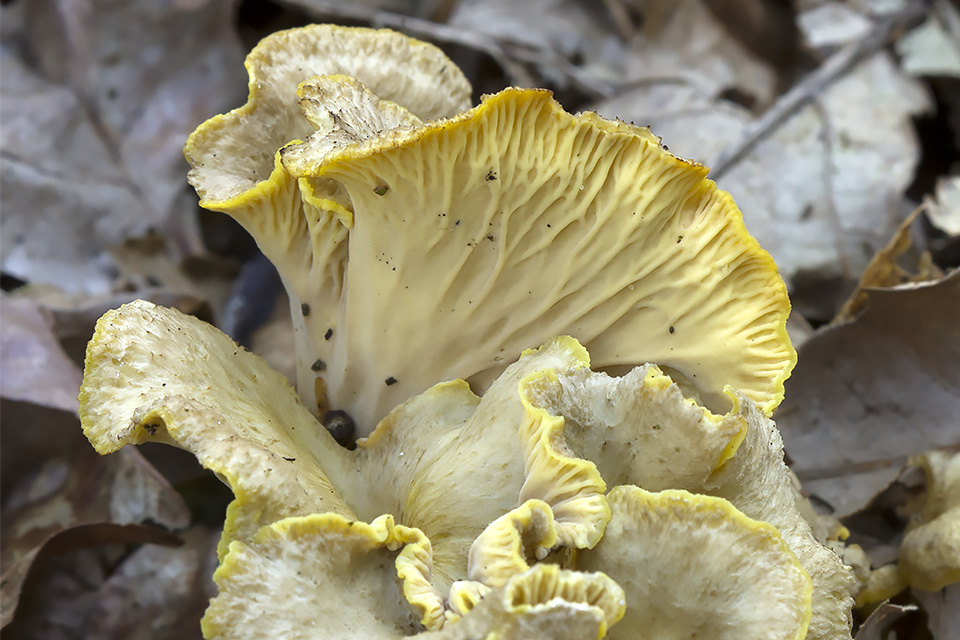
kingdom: Fungi
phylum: Basidiomycota
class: Agaricomycetes
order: Cantharellales
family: Hydnaceae
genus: Cantharellus
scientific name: Cantharellus melanoxeros
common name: sværtende kantarel
